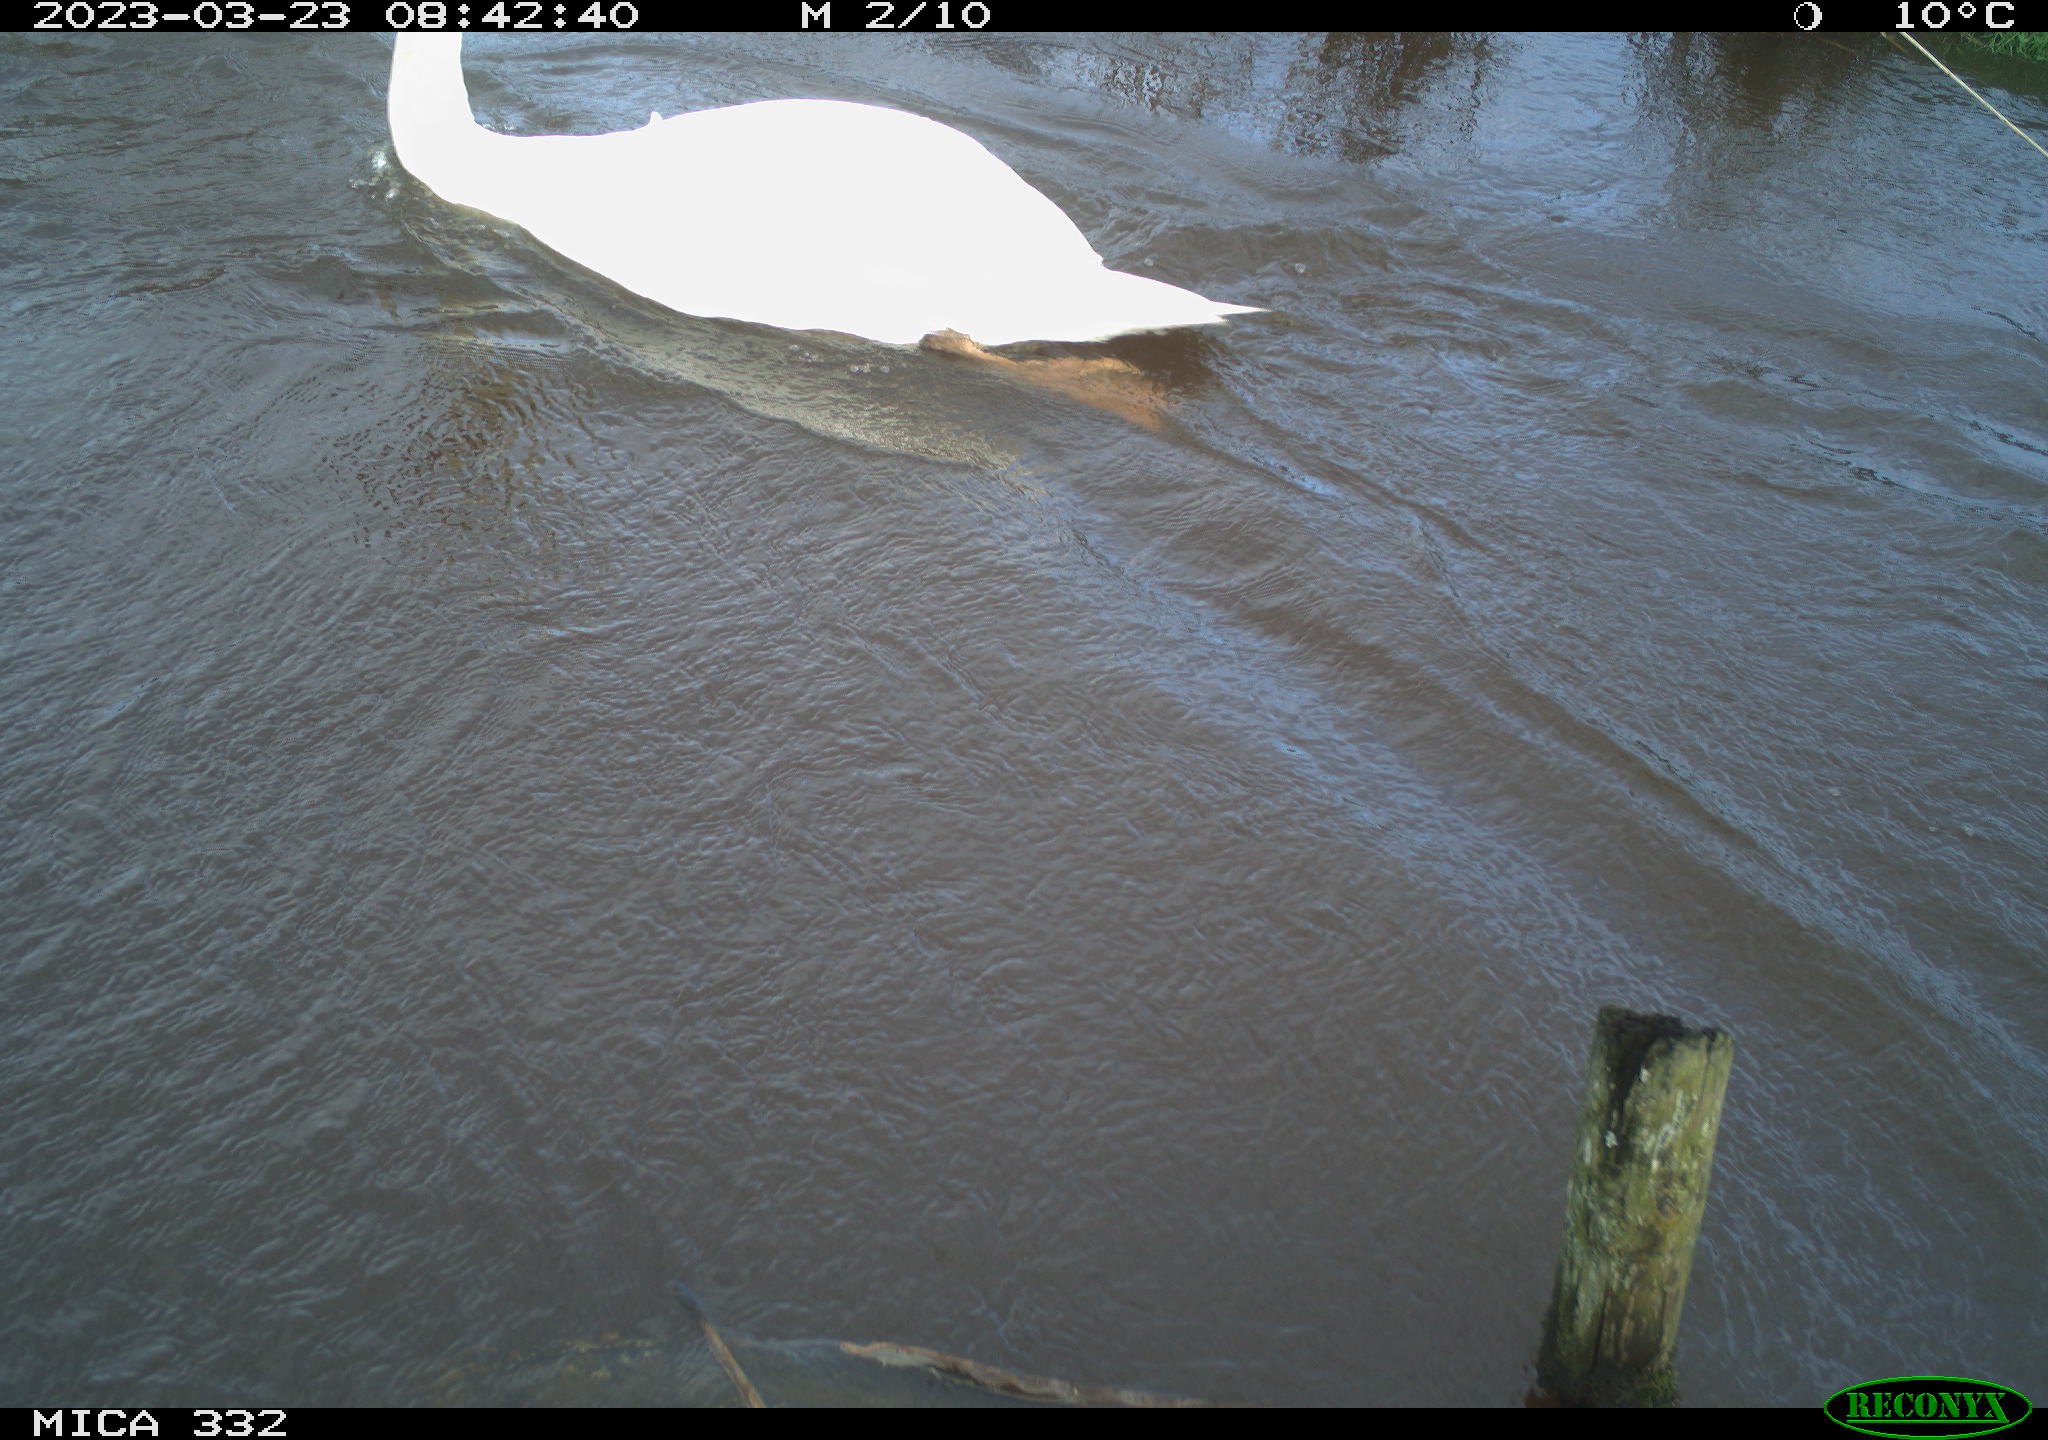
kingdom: Animalia
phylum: Chordata
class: Aves
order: Pelecaniformes
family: Ardeidae
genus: Ardea
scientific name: Ardea
